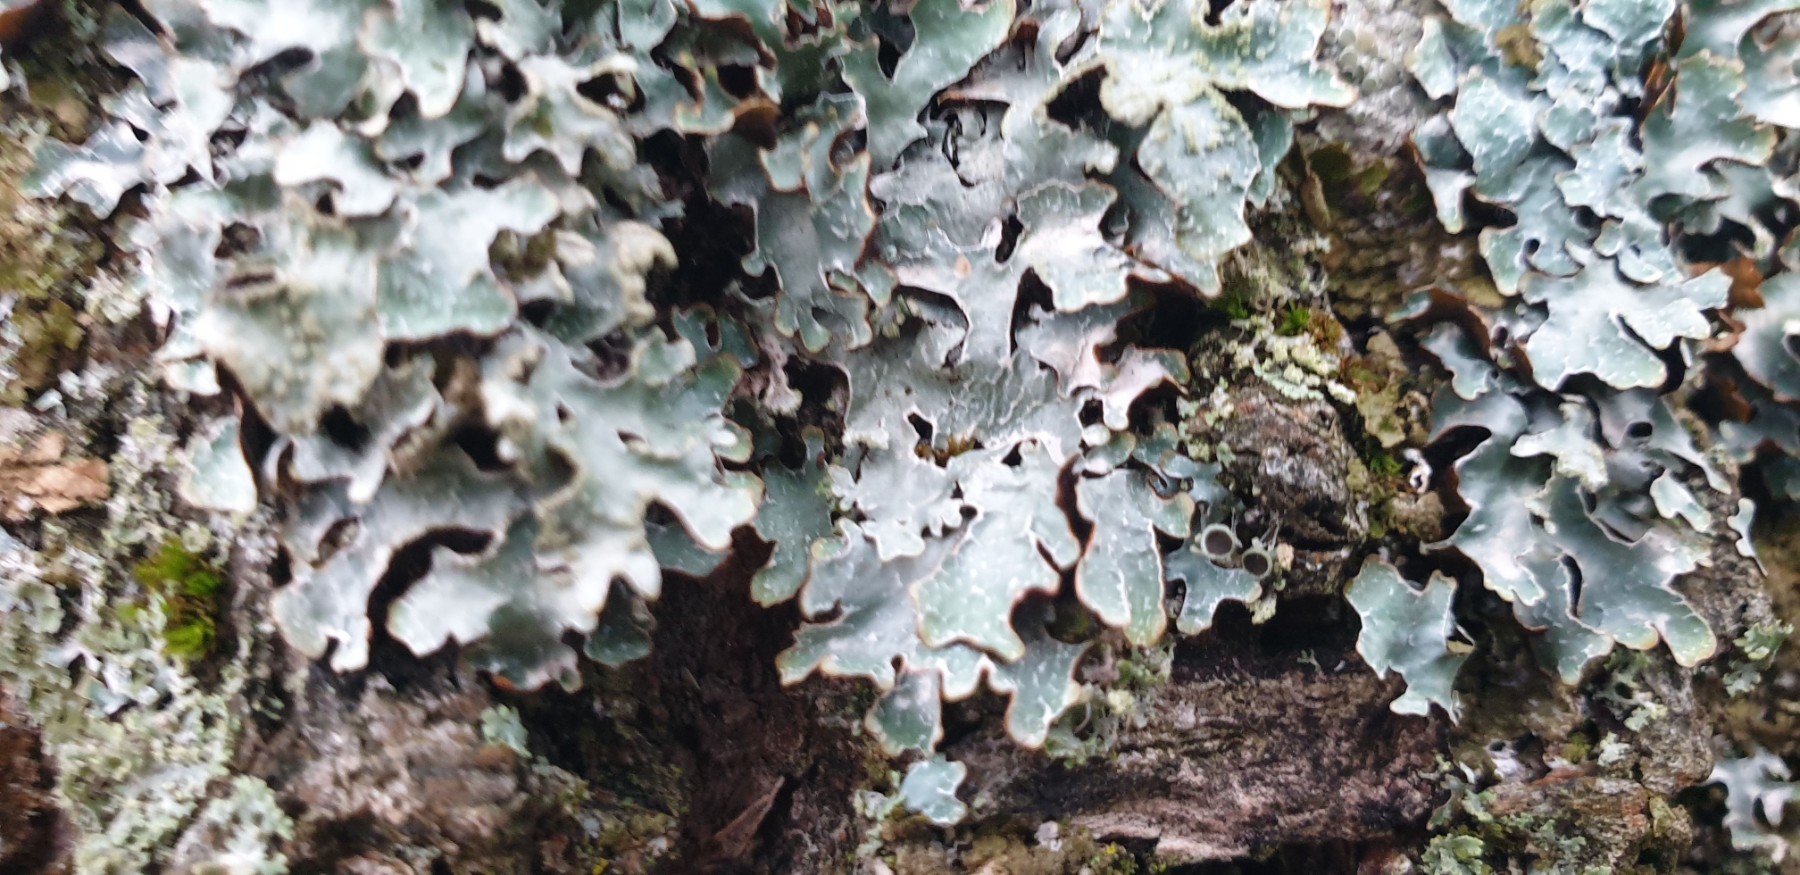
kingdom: Fungi
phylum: Ascomycota
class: Lecanoromycetes
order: Lecanorales
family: Parmeliaceae
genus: Parmelia
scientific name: Parmelia sulcata
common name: rynket skållav
